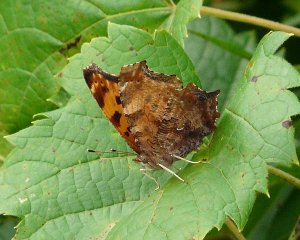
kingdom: Animalia
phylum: Arthropoda
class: Insecta
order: Lepidoptera
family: Nymphalidae
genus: Polygonia
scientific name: Polygonia interrogationis
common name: Question Mark
